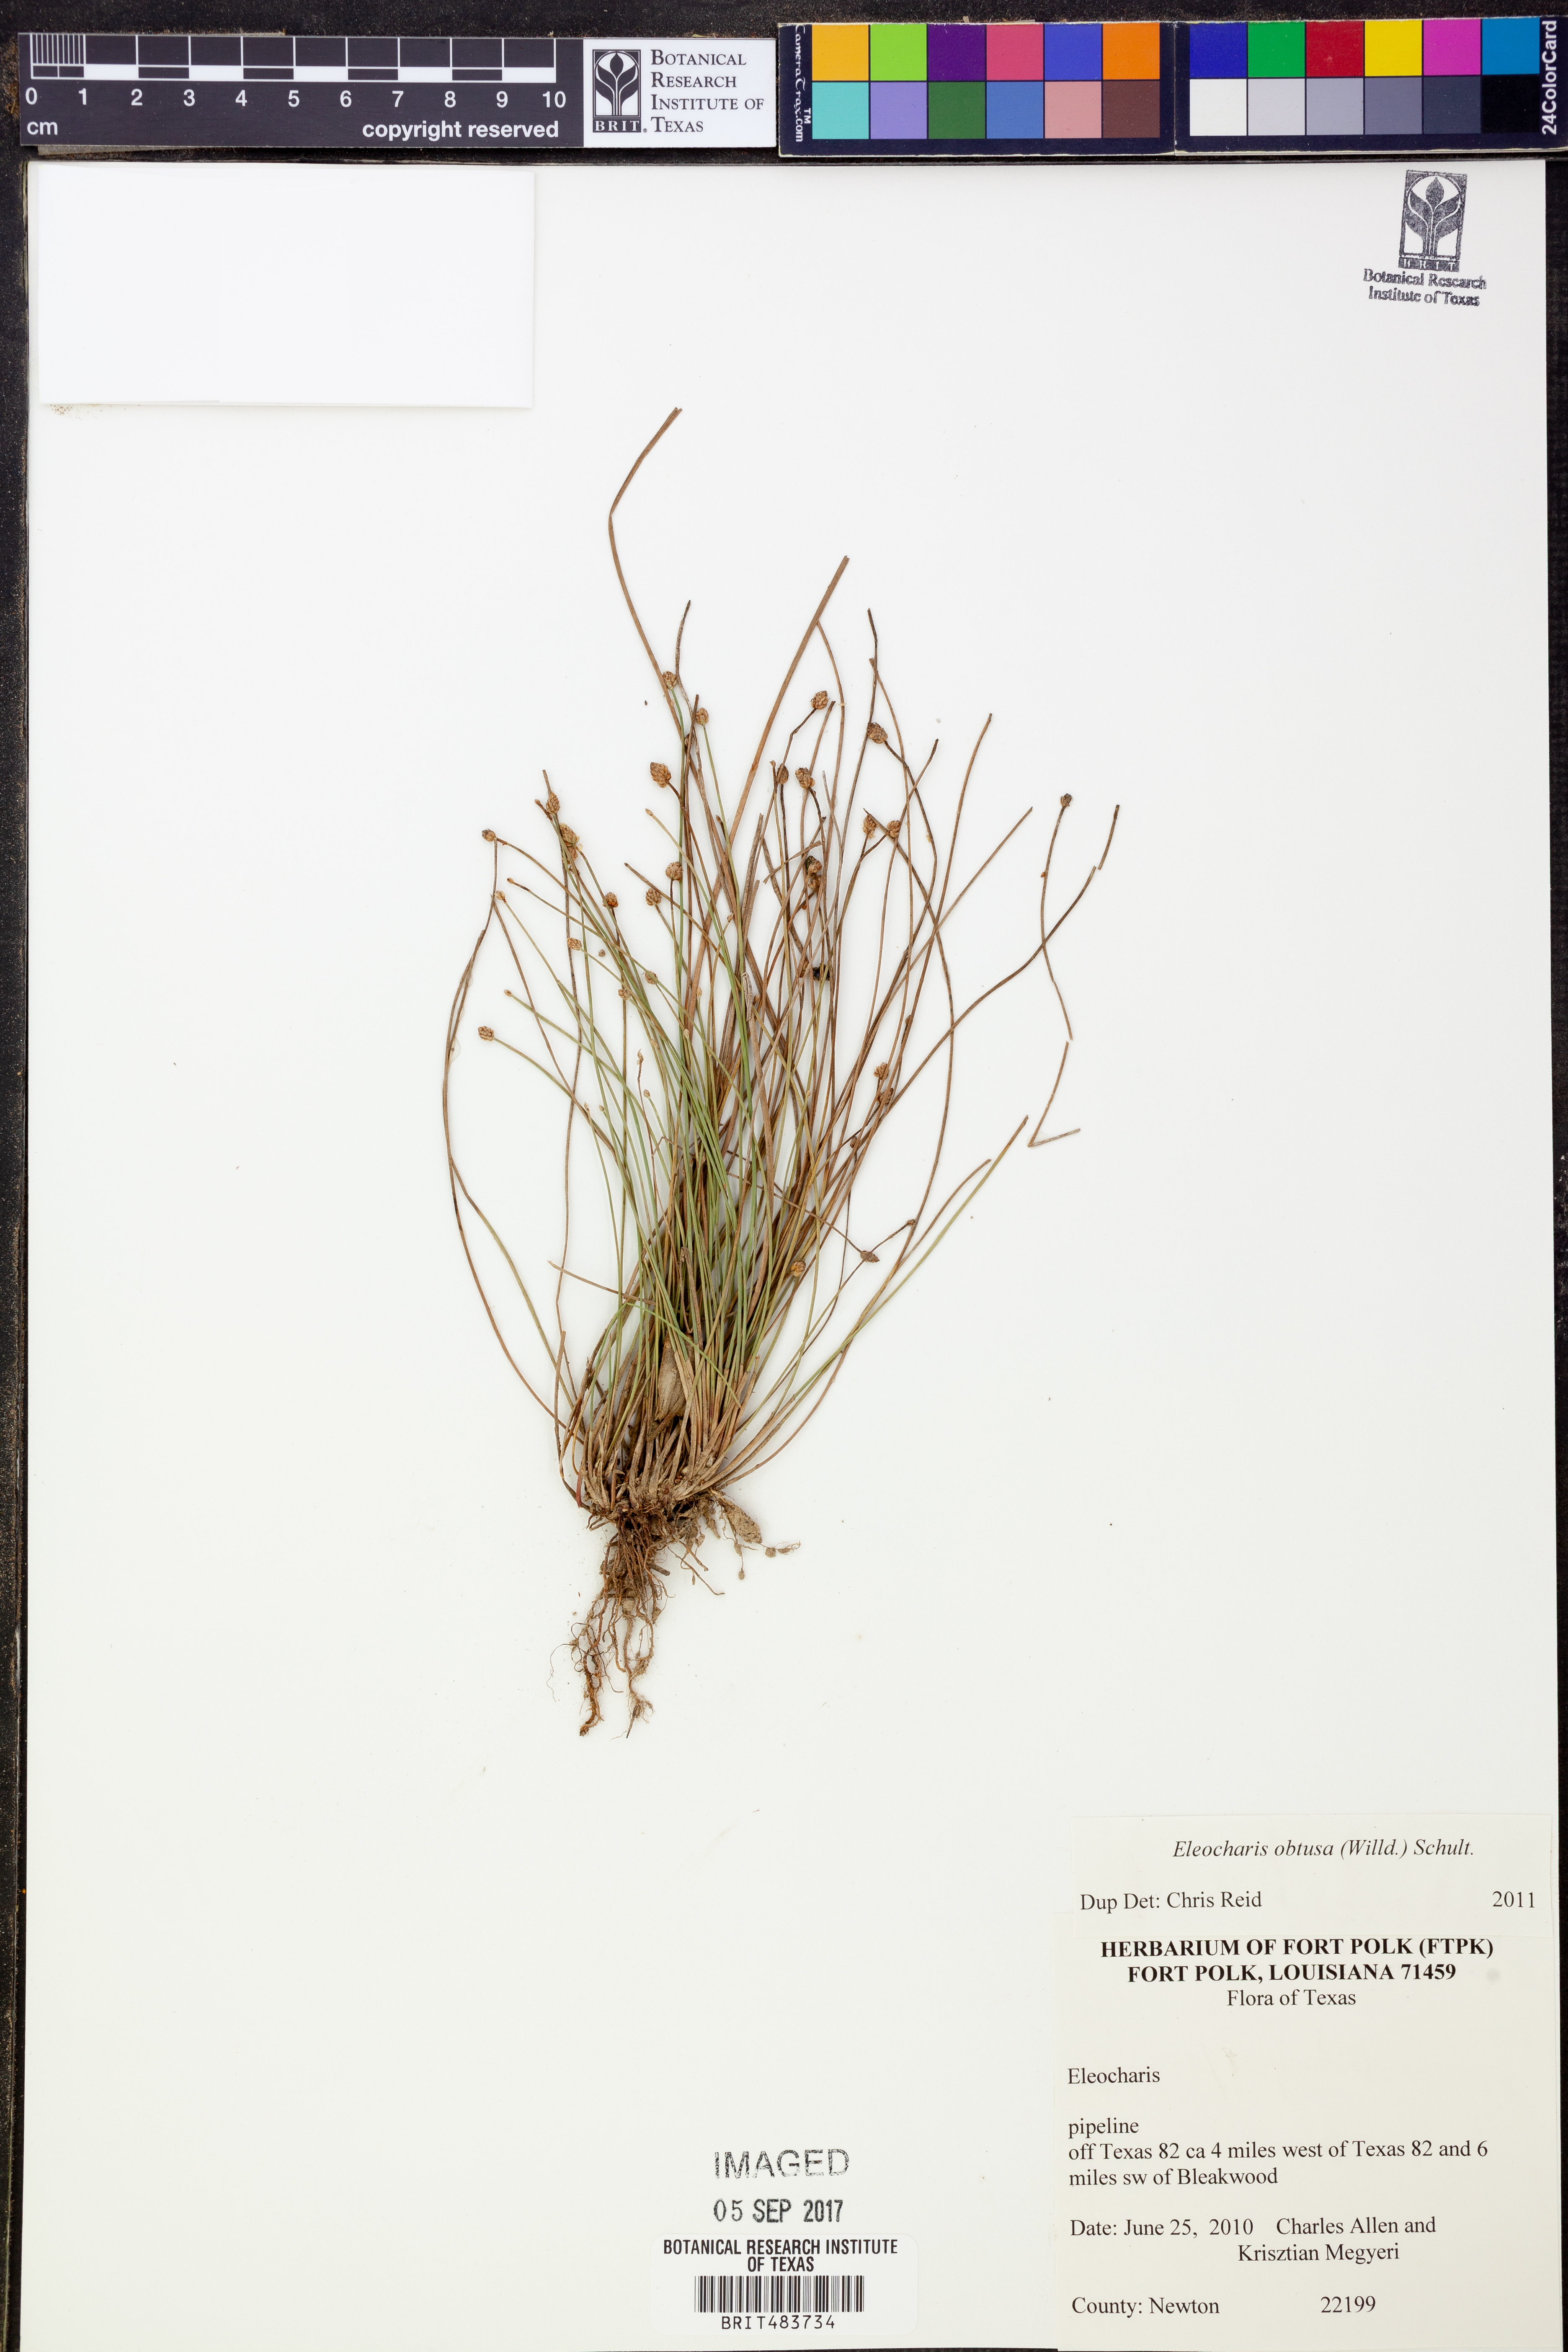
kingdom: Plantae
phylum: Tracheophyta
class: Liliopsida
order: Poales
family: Cyperaceae
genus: Eleocharis
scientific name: Eleocharis obtusa
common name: Blunt spikerush
